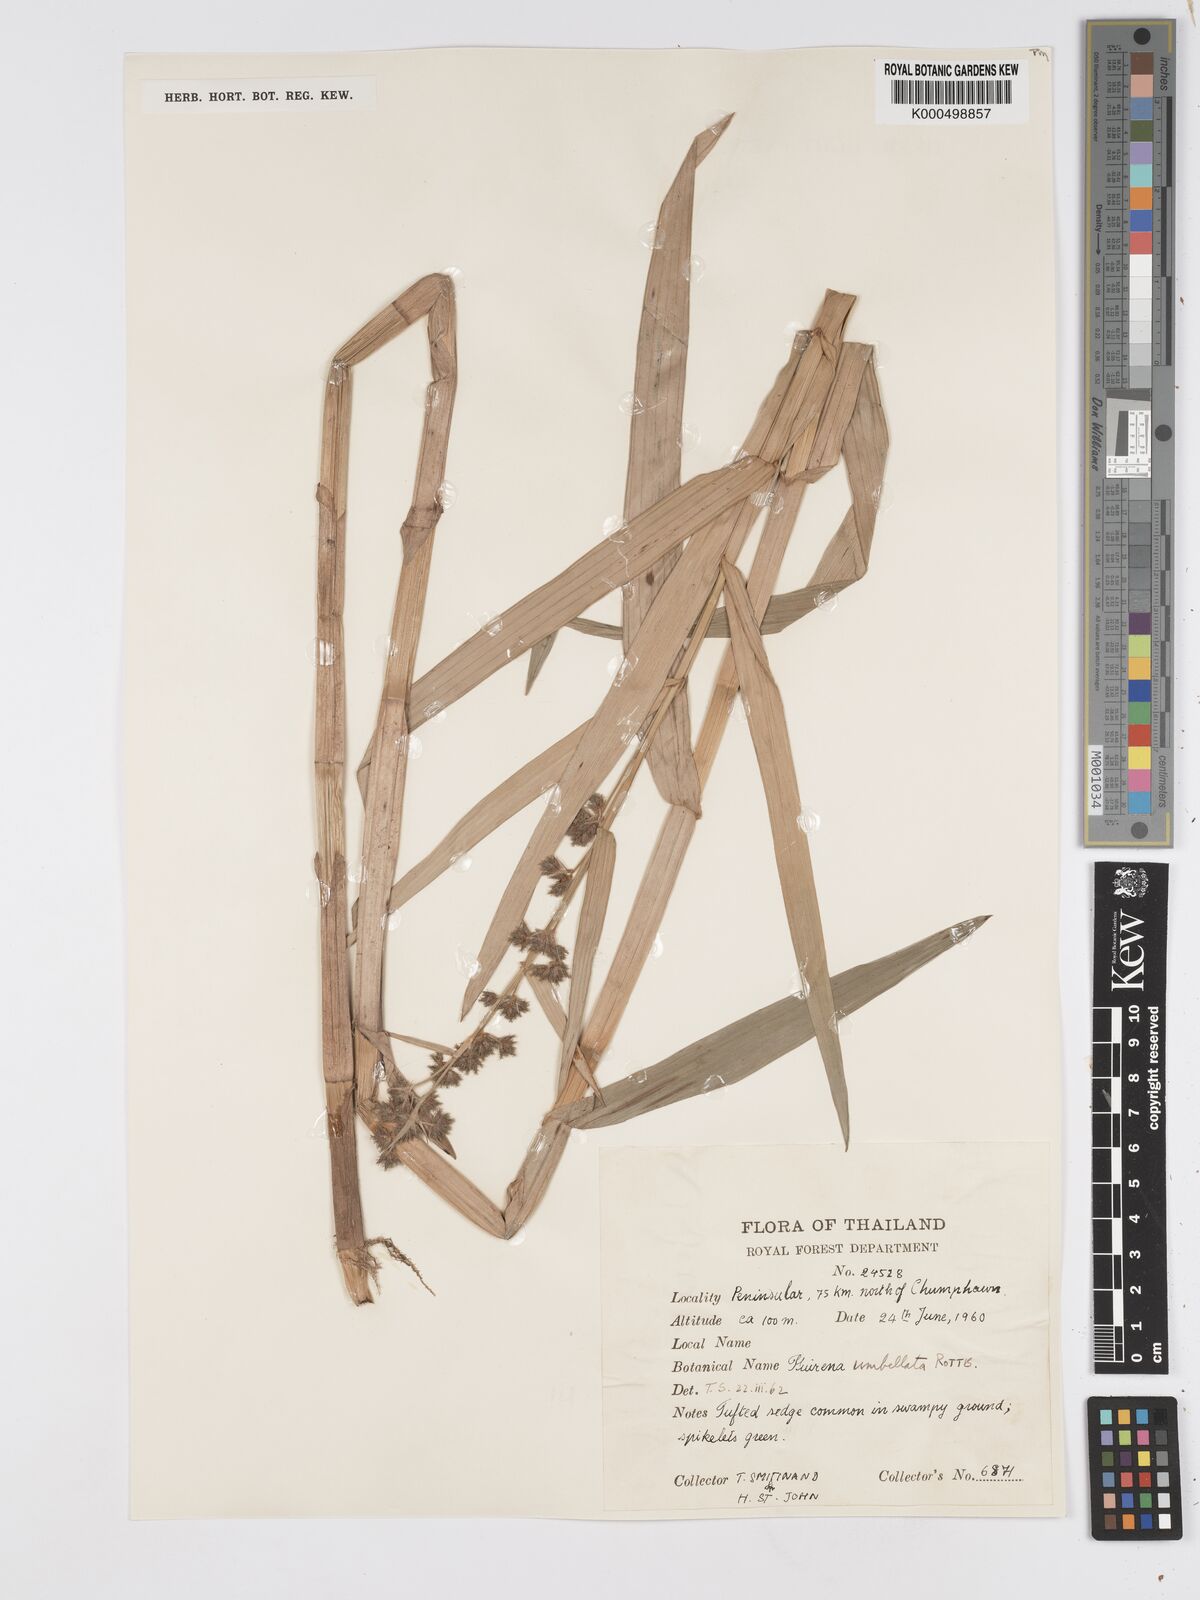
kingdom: Plantae
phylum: Tracheophyta
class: Liliopsida
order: Poales
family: Cyperaceae
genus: Fuirena
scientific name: Fuirena umbellata
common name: Yefen
